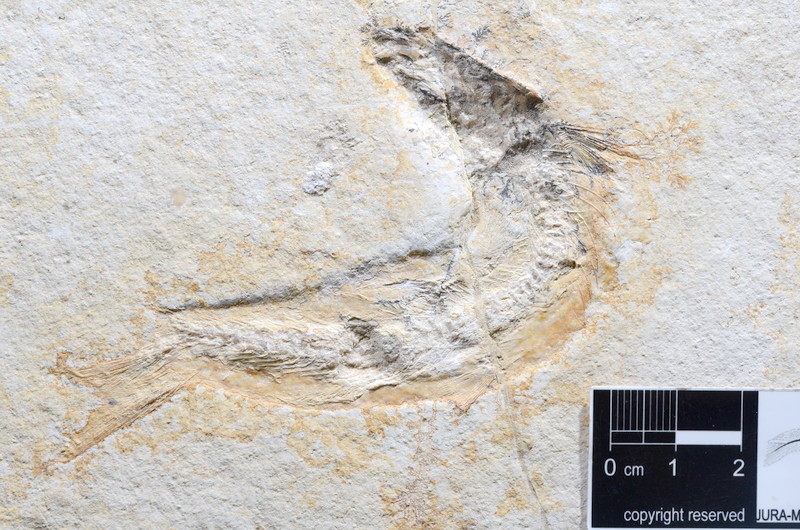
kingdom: Animalia
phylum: Chordata
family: Ascalaboidae
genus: Tharsis
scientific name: Tharsis dubius
